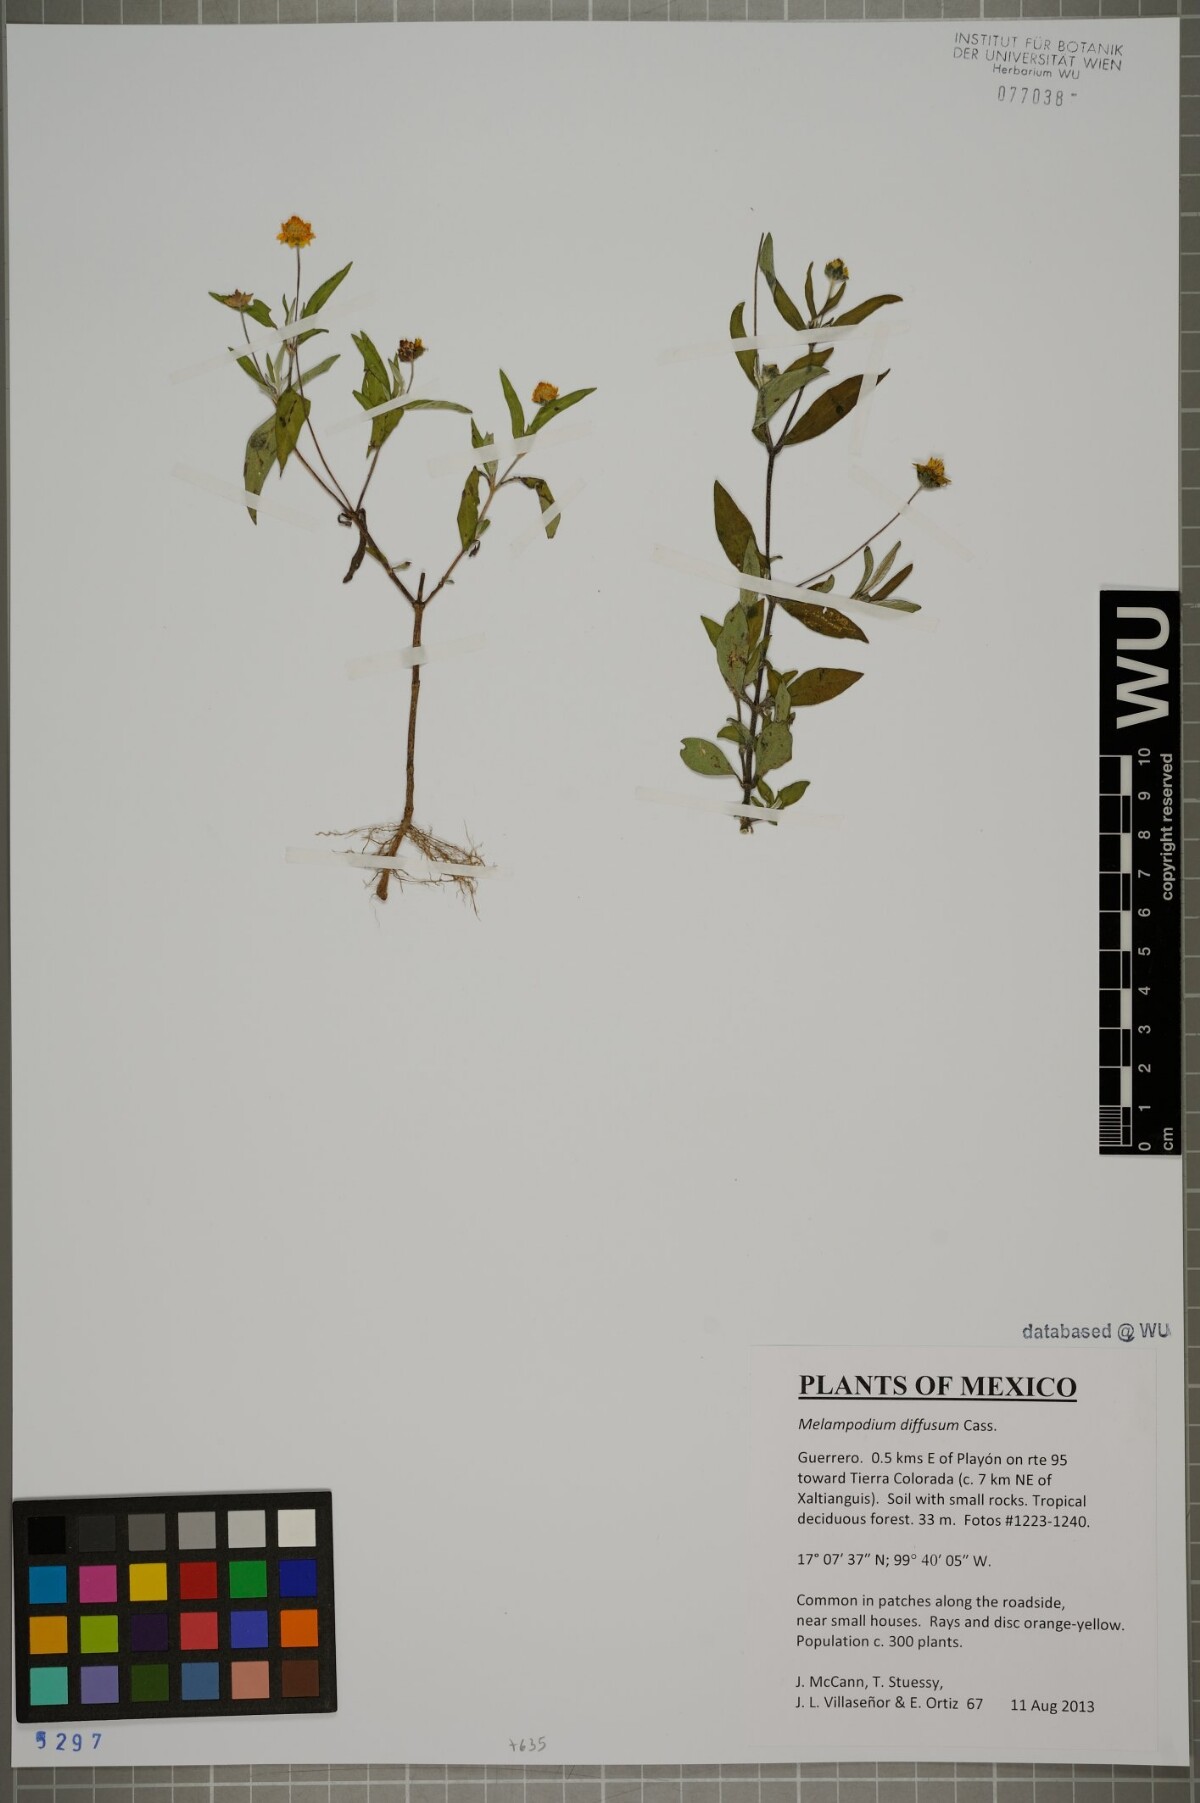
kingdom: Plantae
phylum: Tracheophyta
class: Magnoliopsida
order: Asterales
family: Asteraceae
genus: Melampodium
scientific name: Melampodium diffusum
